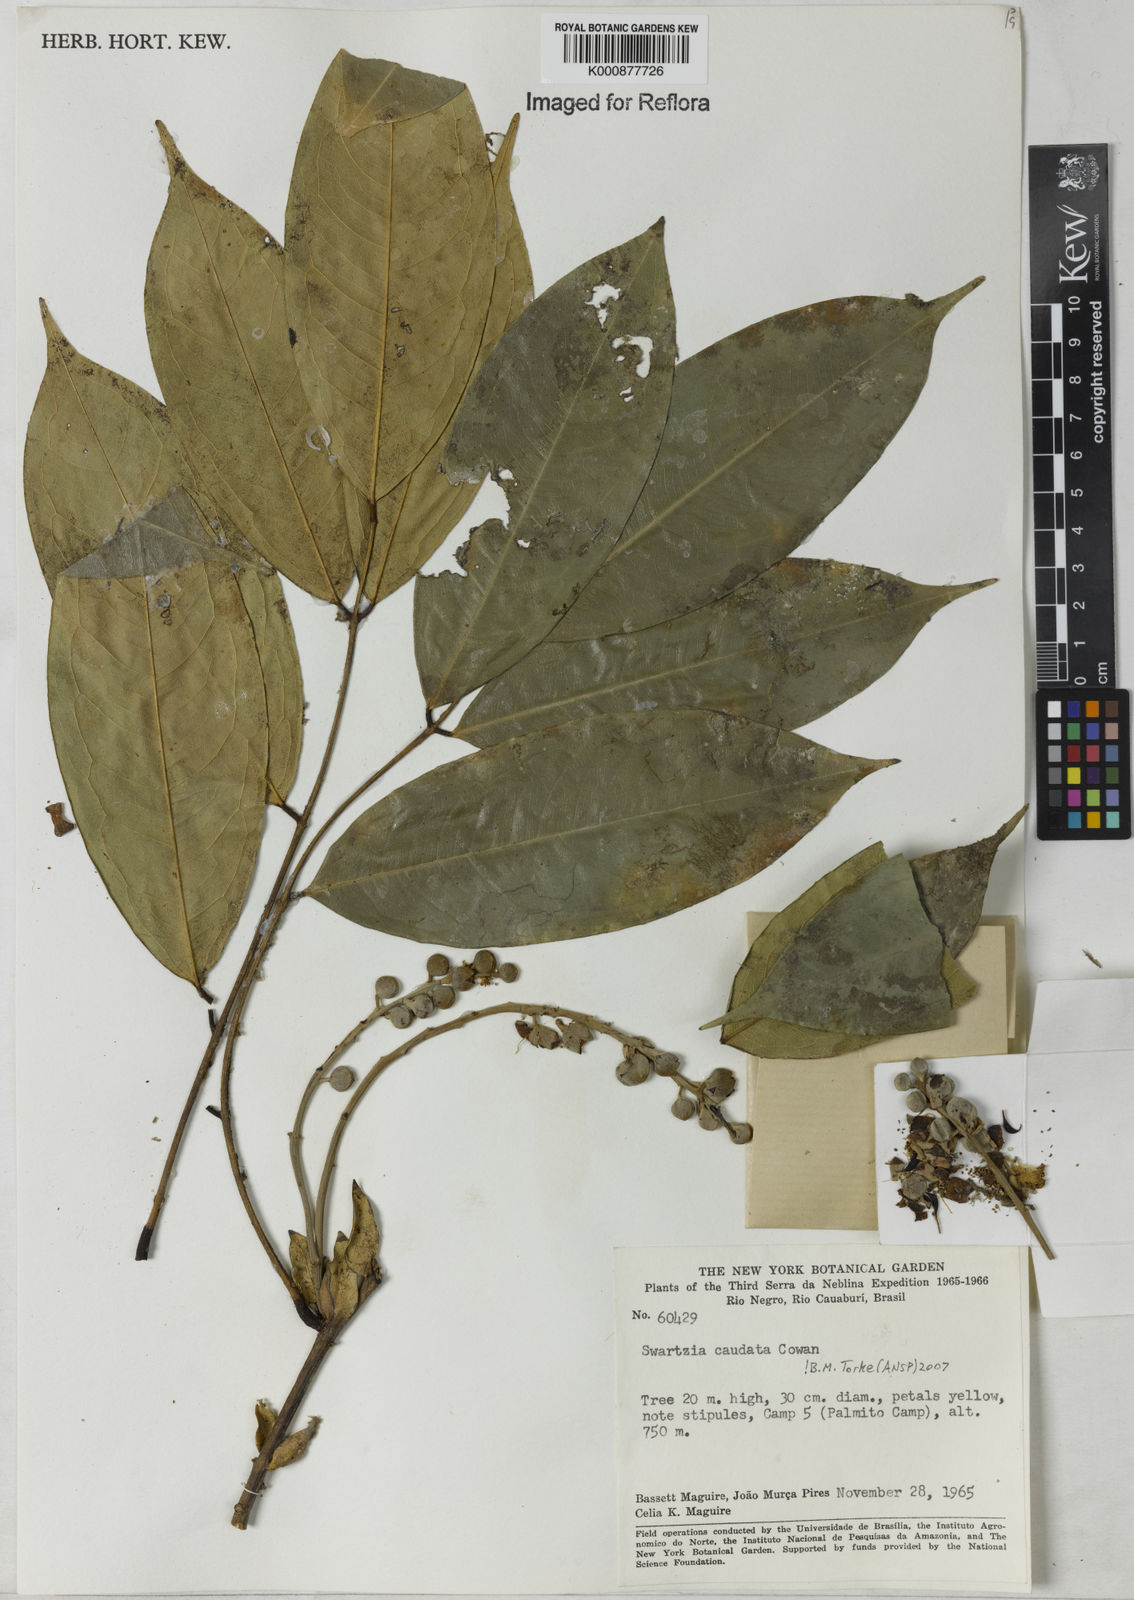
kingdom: Plantae
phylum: Tracheophyta
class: Magnoliopsida
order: Fabales
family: Fabaceae
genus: Swartzia
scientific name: Swartzia caudata
